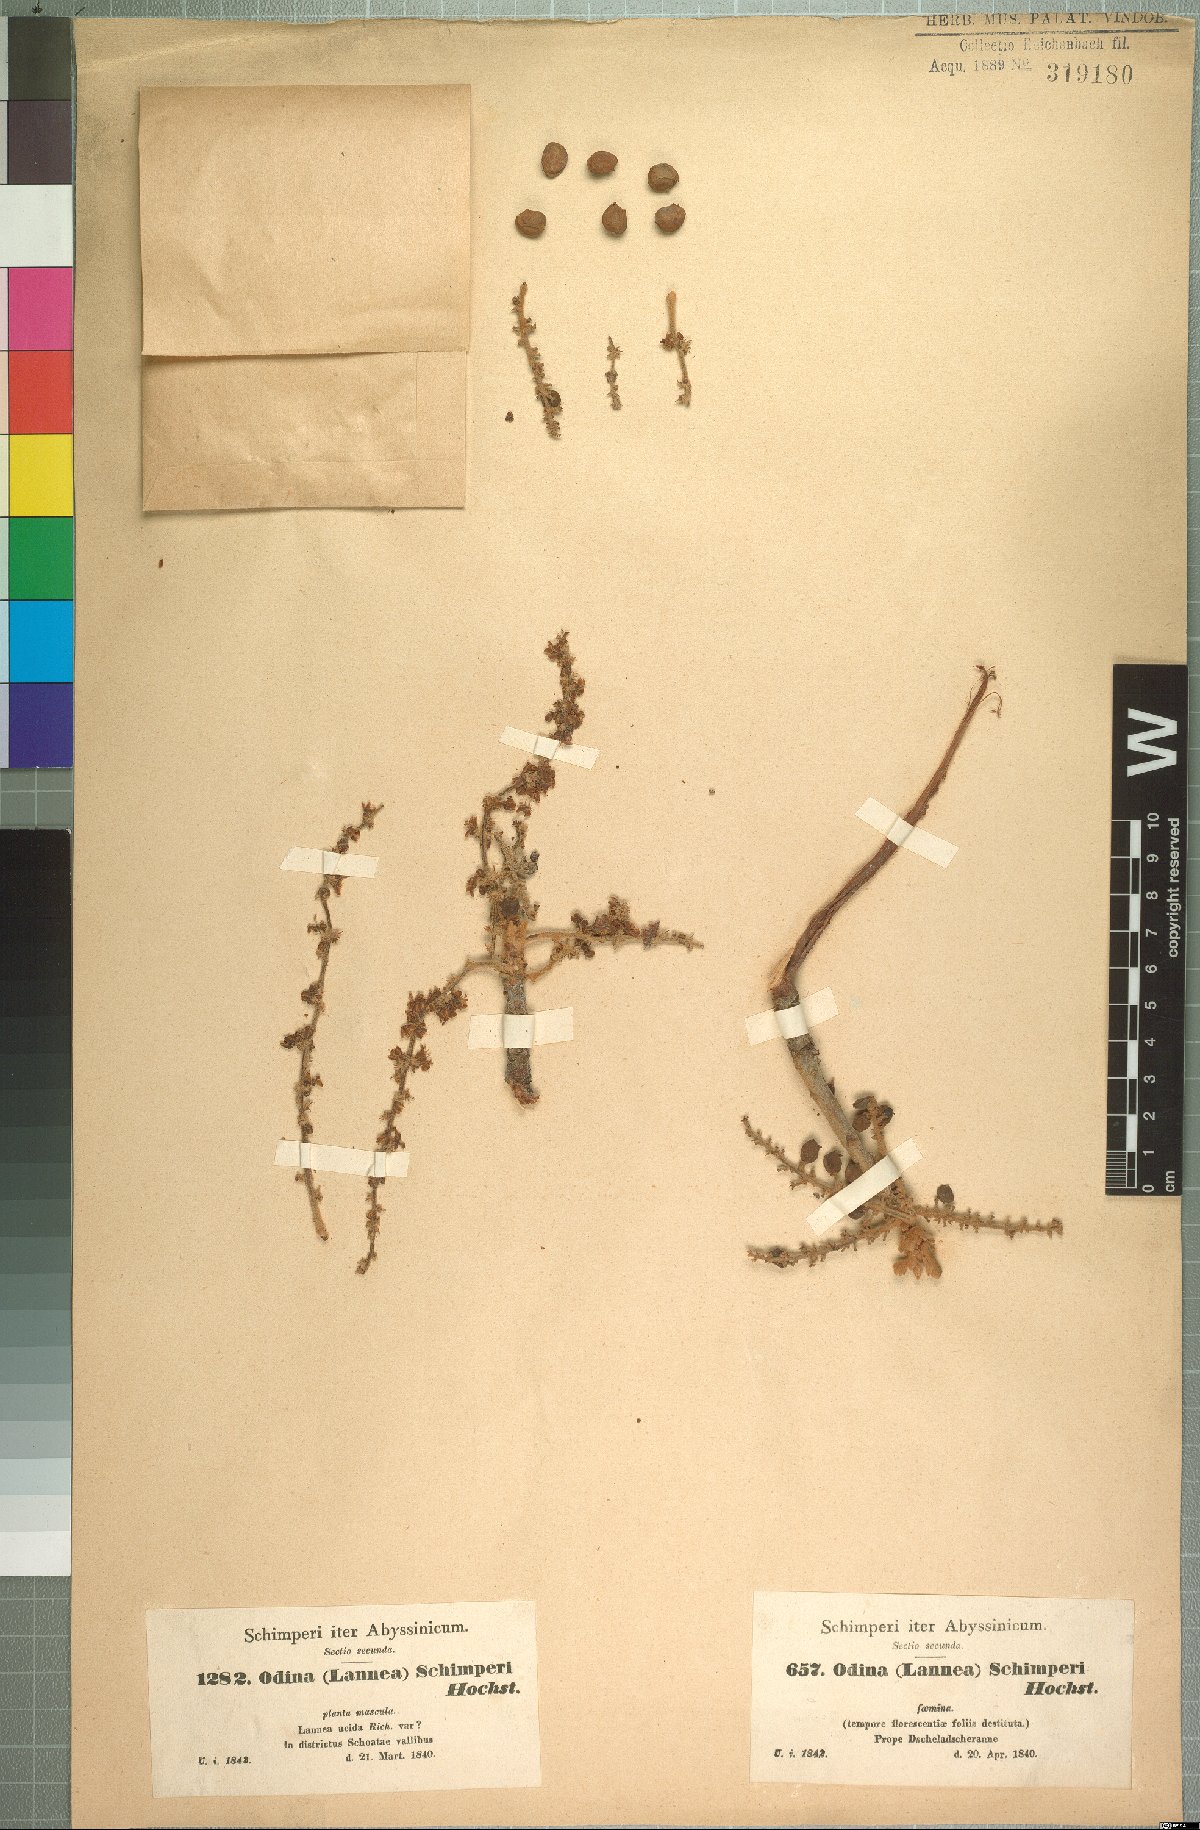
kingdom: Plantae
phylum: Tracheophyta
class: Magnoliopsida
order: Sapindales
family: Anacardiaceae
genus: Lannea
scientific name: Lannea schimperi
